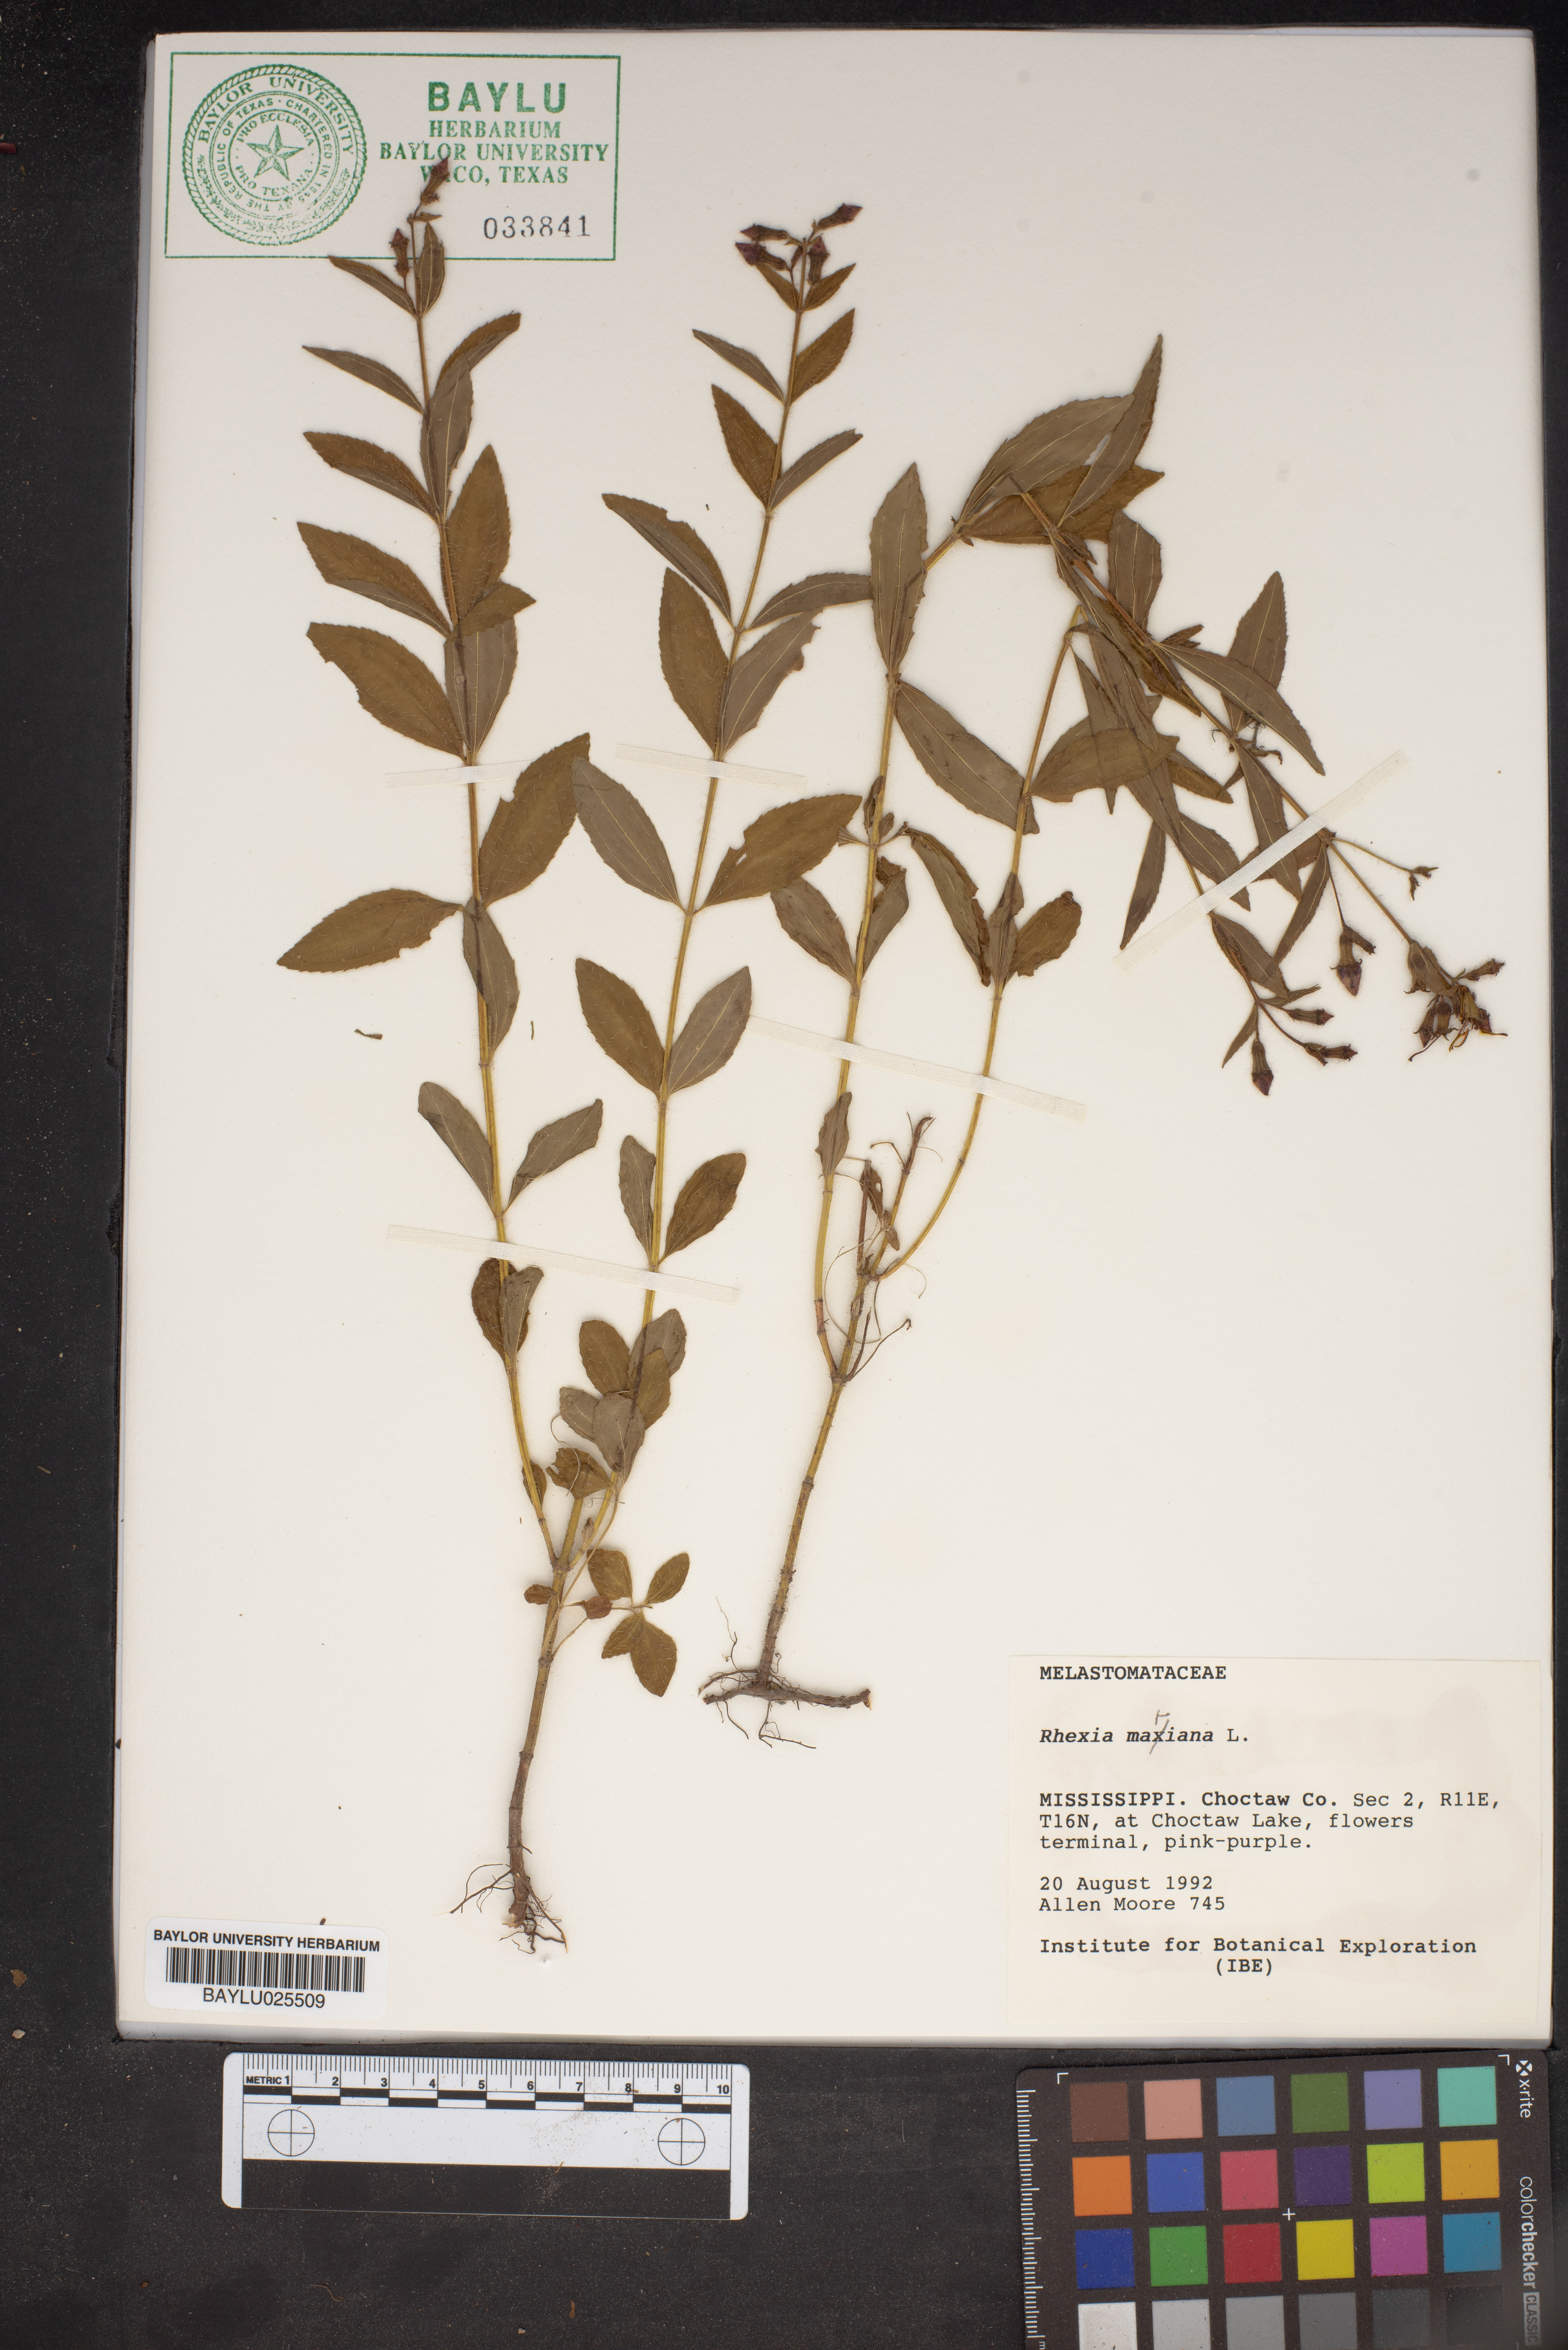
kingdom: Plantae
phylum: Tracheophyta
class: Magnoliopsida
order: Myrtales
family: Melastomataceae
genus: Rhexia
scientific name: Rhexia mariana
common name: Dull meadow-pitcher
